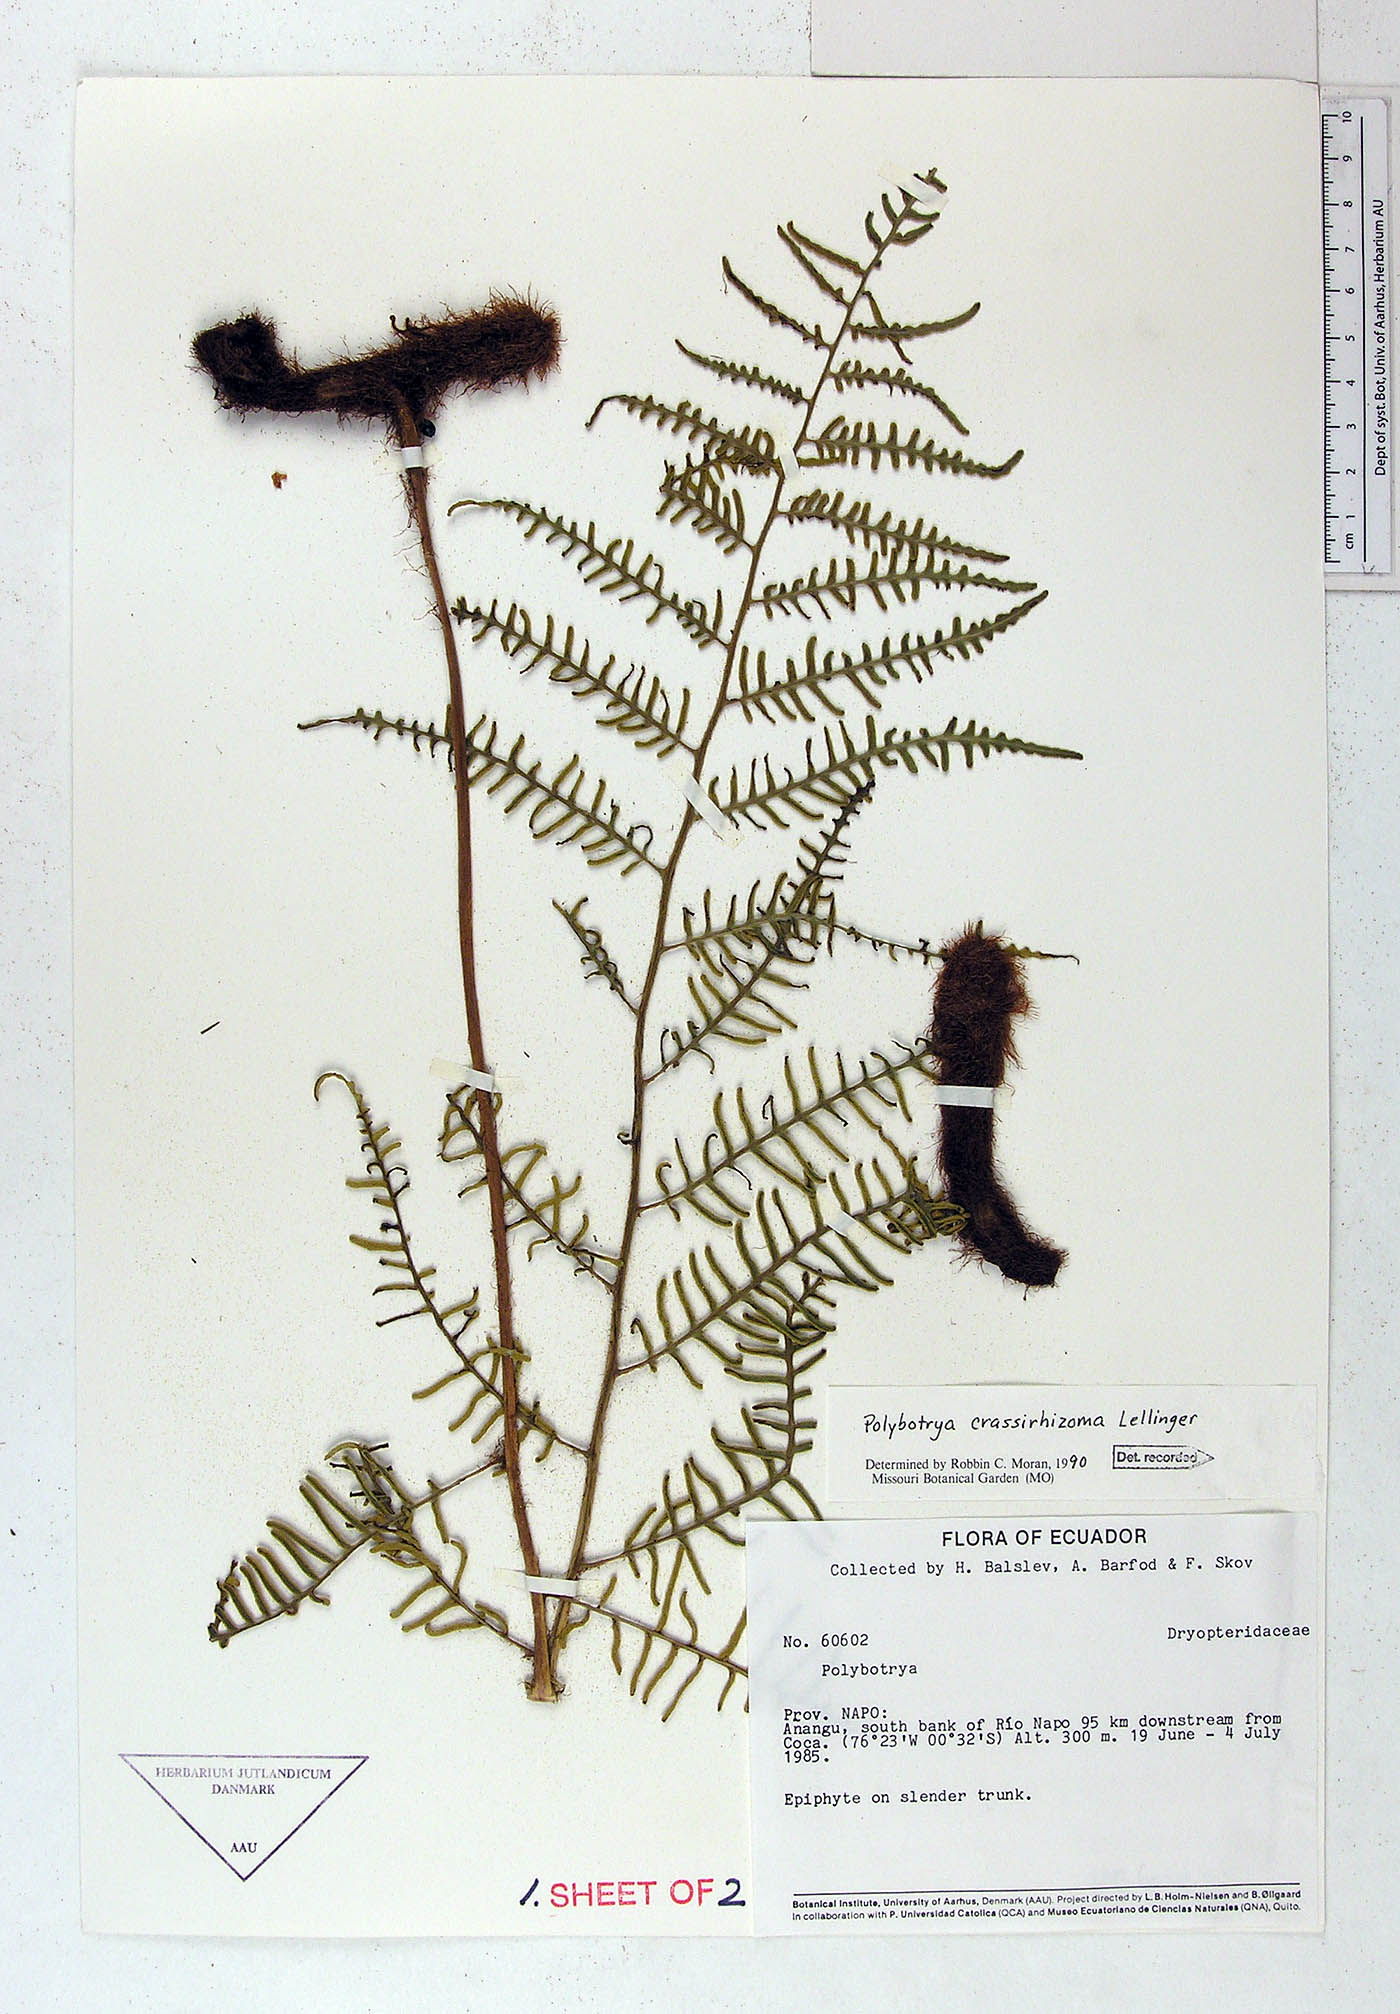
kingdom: Plantae
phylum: Tracheophyta
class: Polypodiopsida
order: Polypodiales
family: Dryopteridaceae
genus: Polybotrya
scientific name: Polybotrya crassirhizoma
